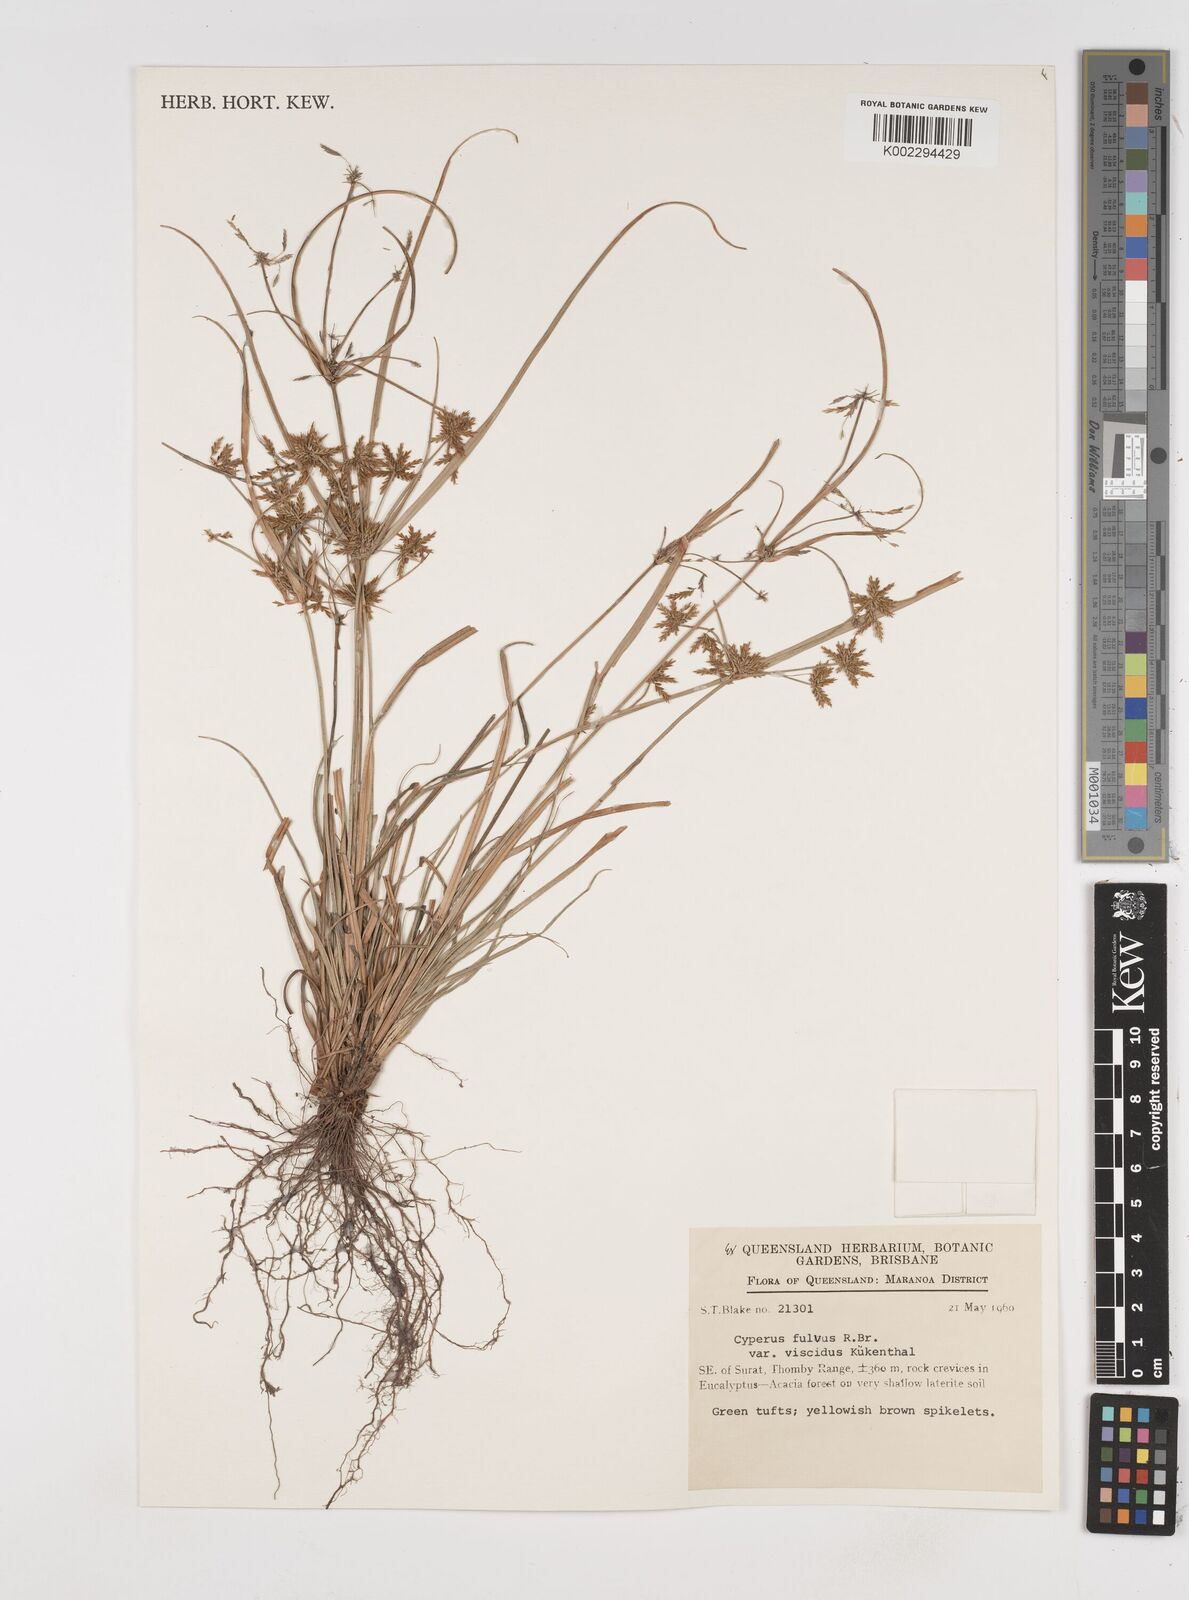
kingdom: Plantae
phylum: Tracheophyta
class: Liliopsida
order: Poales
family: Cyperaceae
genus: Cyperus
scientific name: Cyperus fulvus
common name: Sticky sedge
